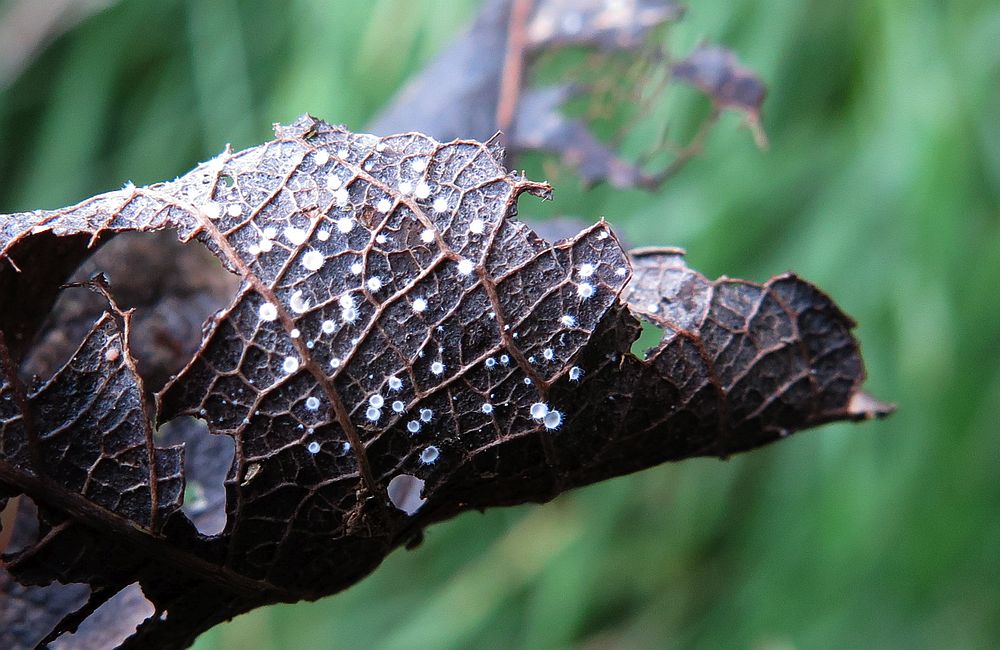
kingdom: Fungi
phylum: Basidiomycota
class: Agaricomycetes
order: Agaricales
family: Niaceae
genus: Flagelloscypha
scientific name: Flagelloscypha niveola
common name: pjusket hængeskål
